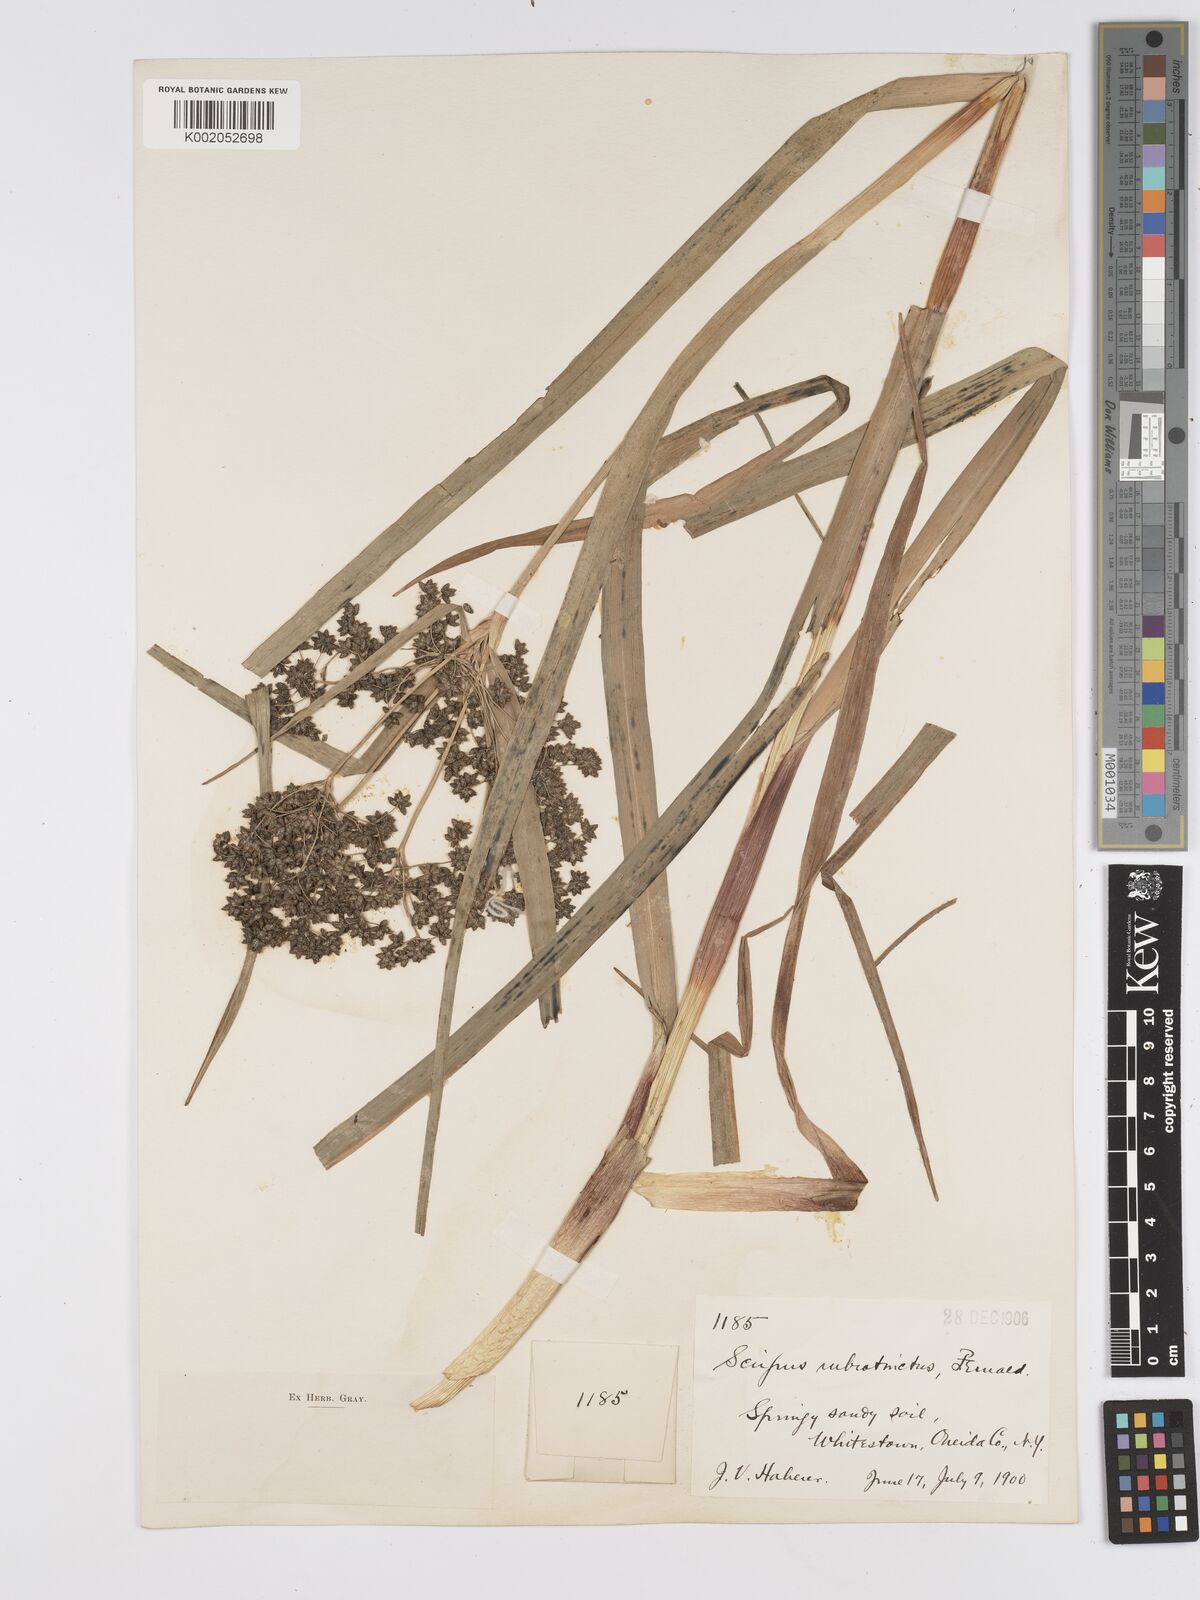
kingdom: Plantae
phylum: Tracheophyta
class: Liliopsida
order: Poales
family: Cyperaceae
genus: Scirpus
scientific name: Scirpus atrovirens
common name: Black bulrush
